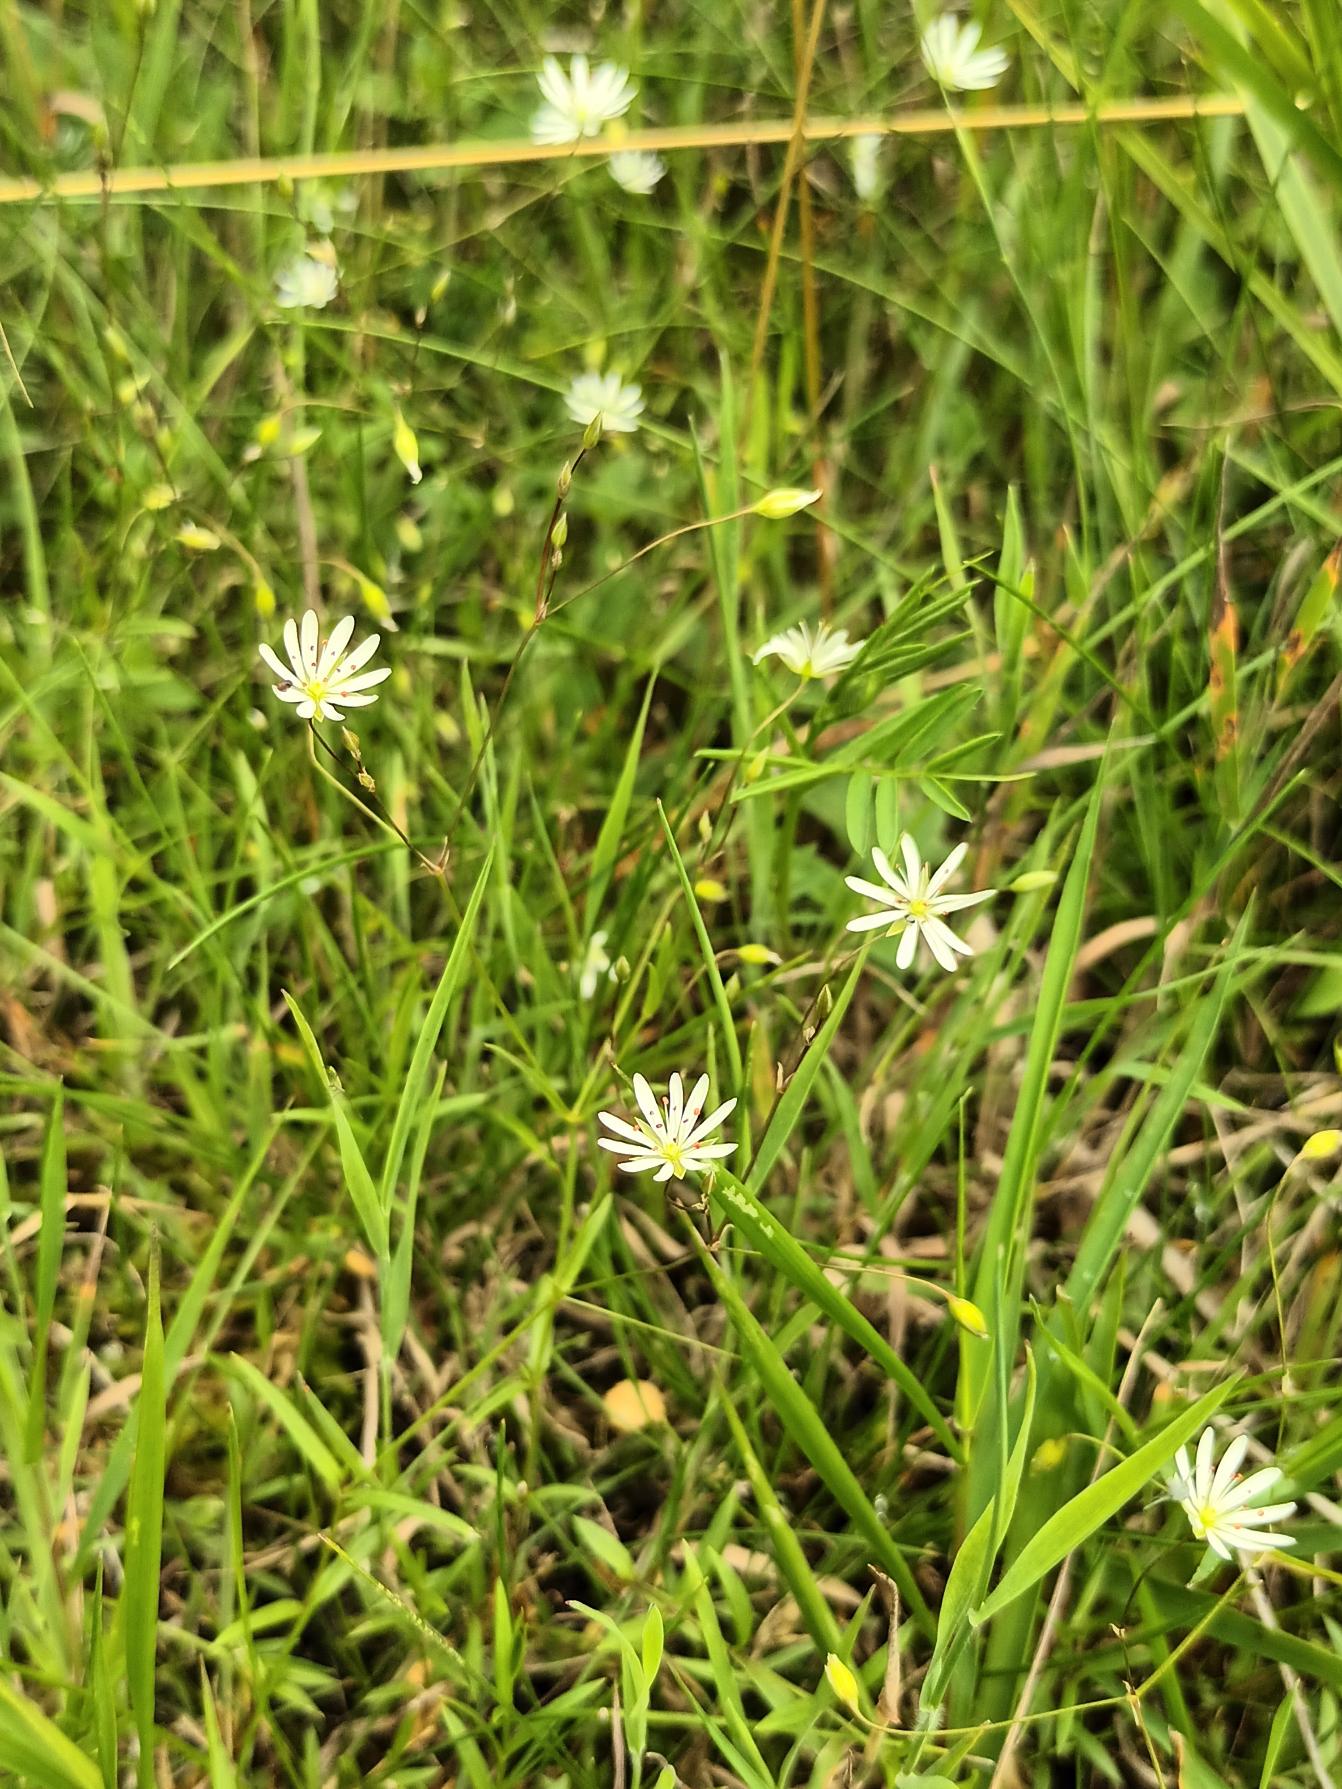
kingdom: Plantae
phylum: Tracheophyta
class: Magnoliopsida
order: Caryophyllales
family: Caryophyllaceae
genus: Stellaria
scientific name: Stellaria graminea
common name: Græsbladet fladstjerne
